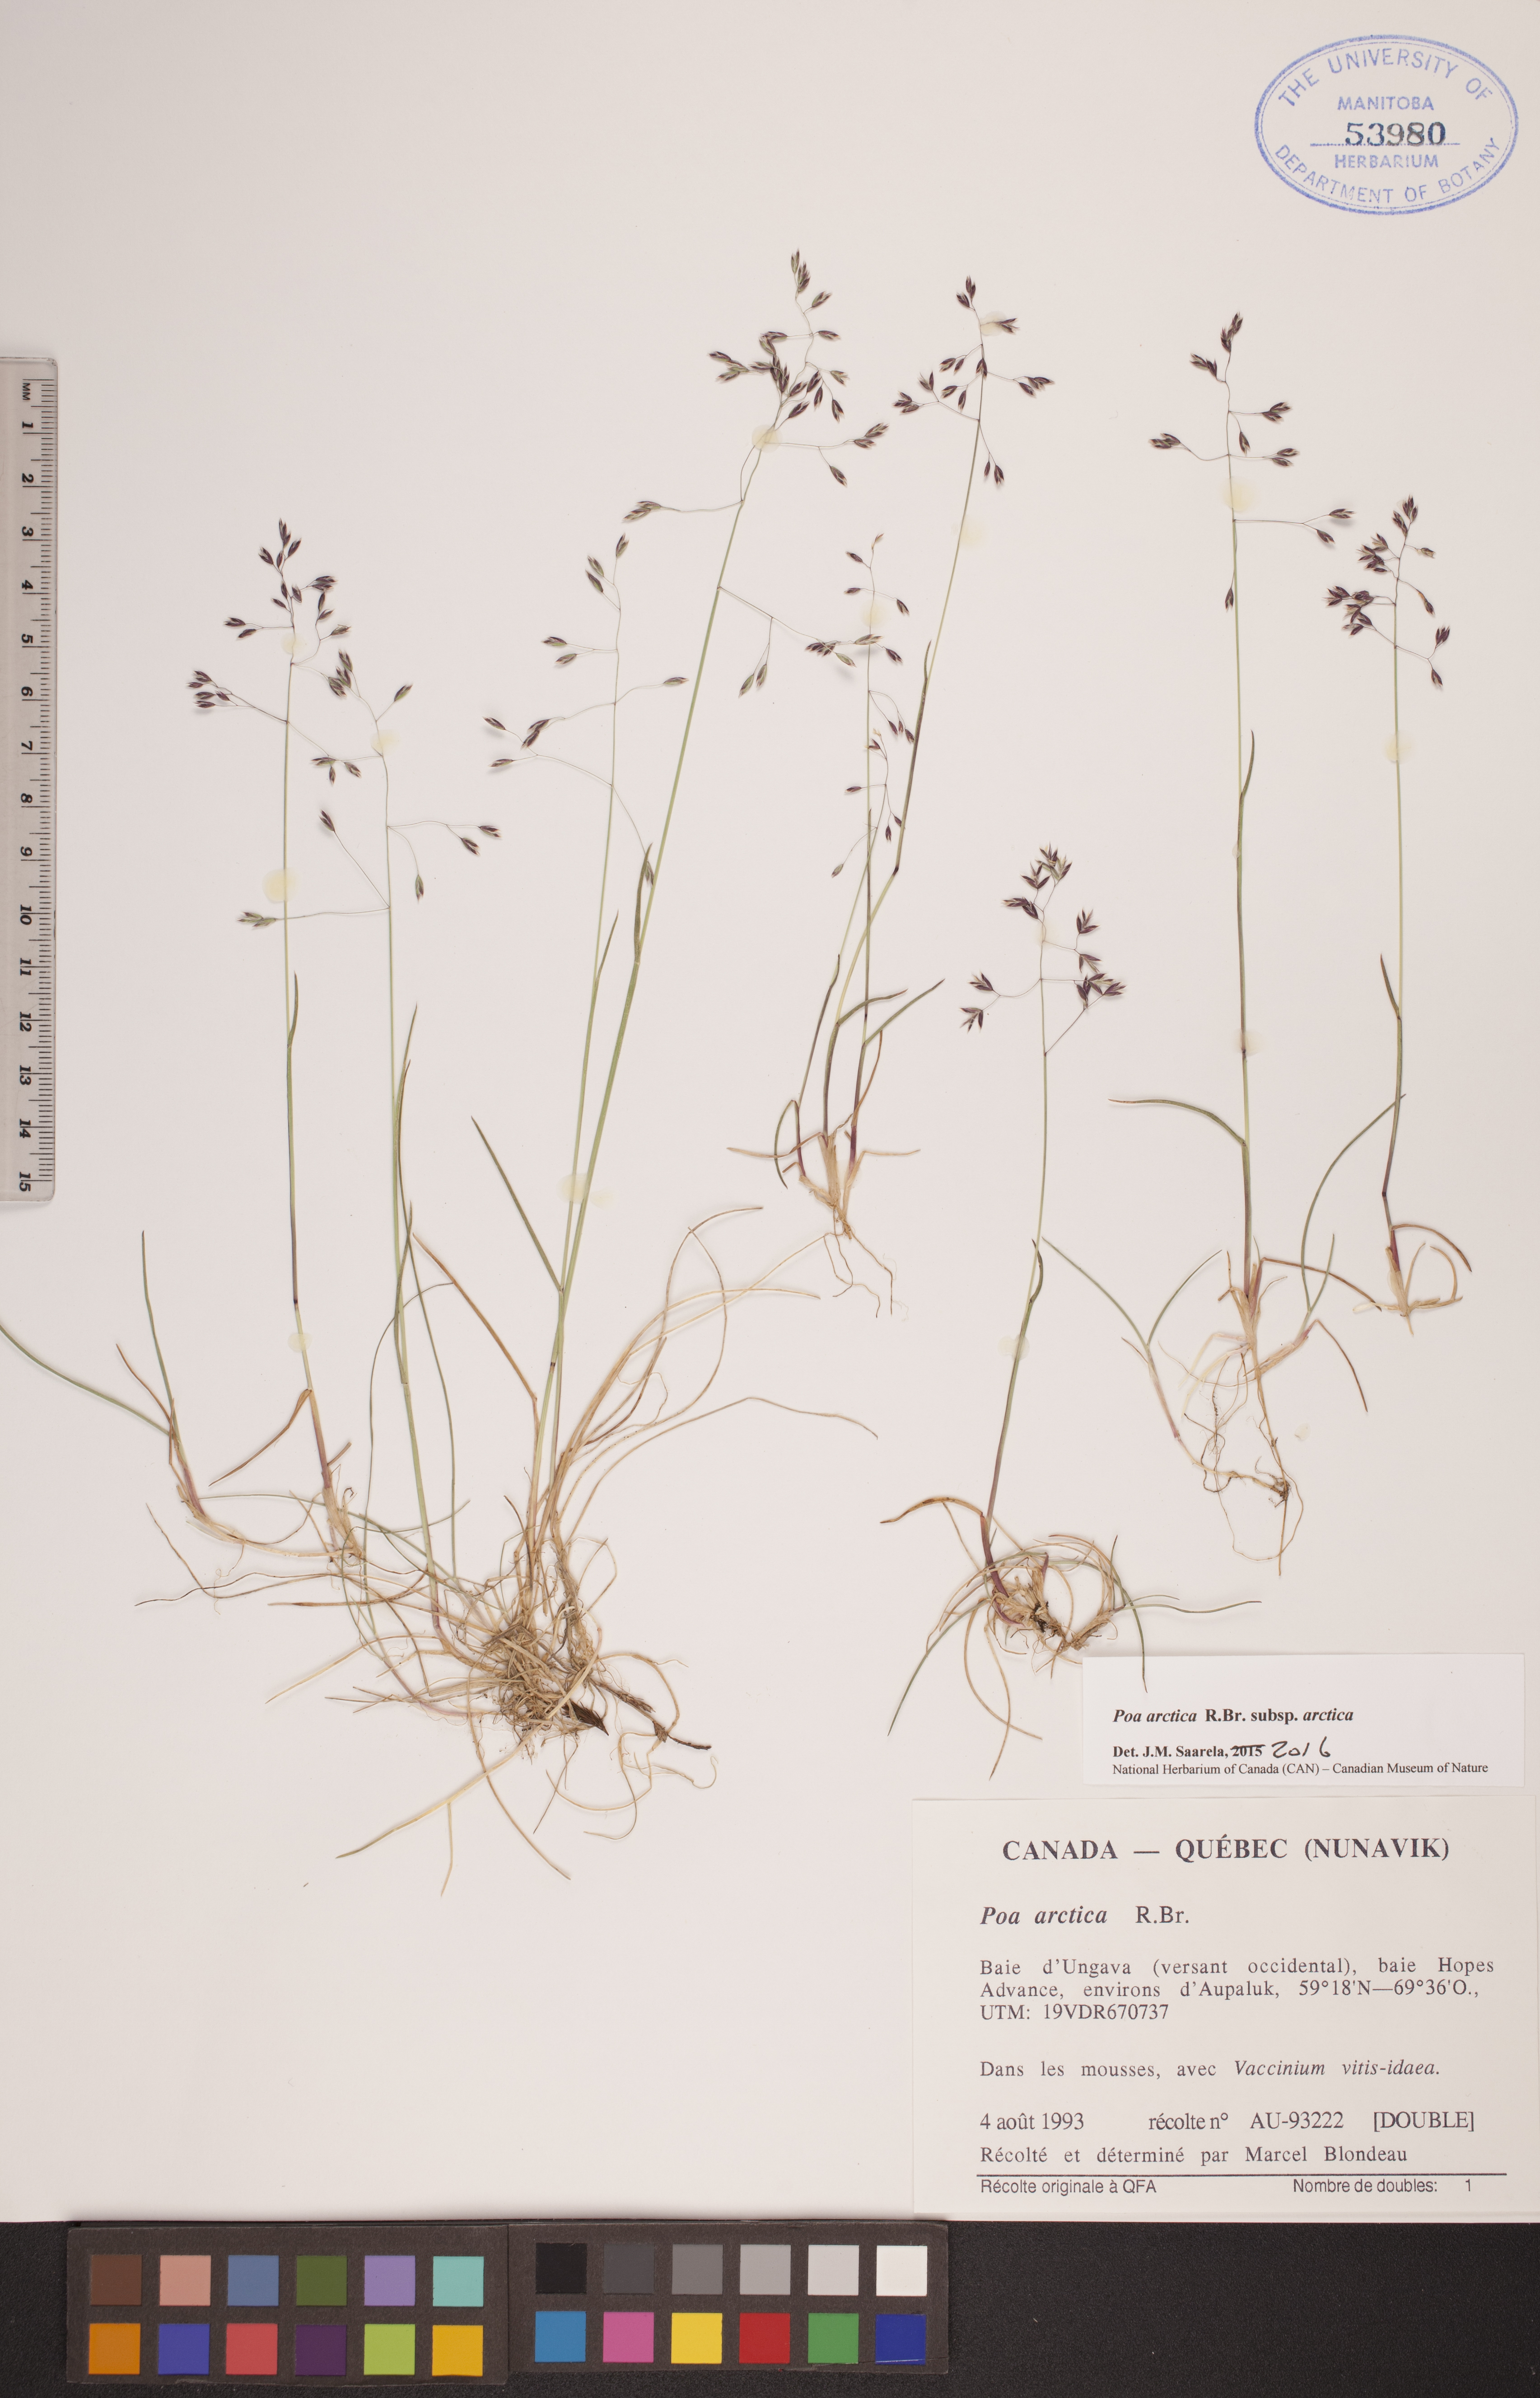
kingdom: Plantae
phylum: Tracheophyta
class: Liliopsida
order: Poales
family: Poaceae
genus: Poa
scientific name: Poa arctica
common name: Arctic bluegrass
